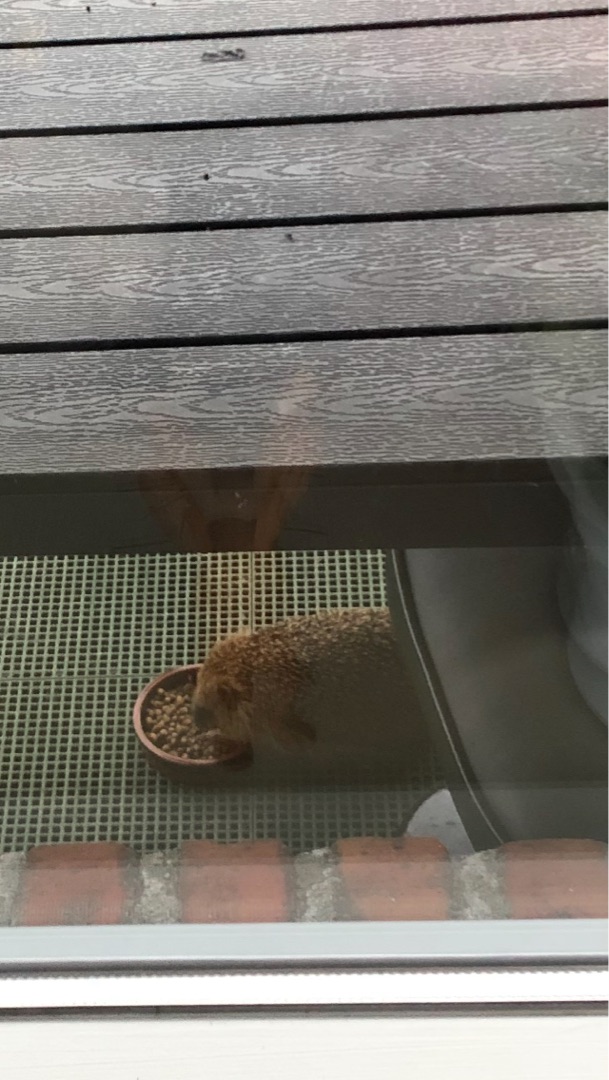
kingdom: Animalia
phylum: Chordata
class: Mammalia
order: Erinaceomorpha
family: Erinaceidae
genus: Erinaceus
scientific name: Erinaceus europaeus
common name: Pindsvin
